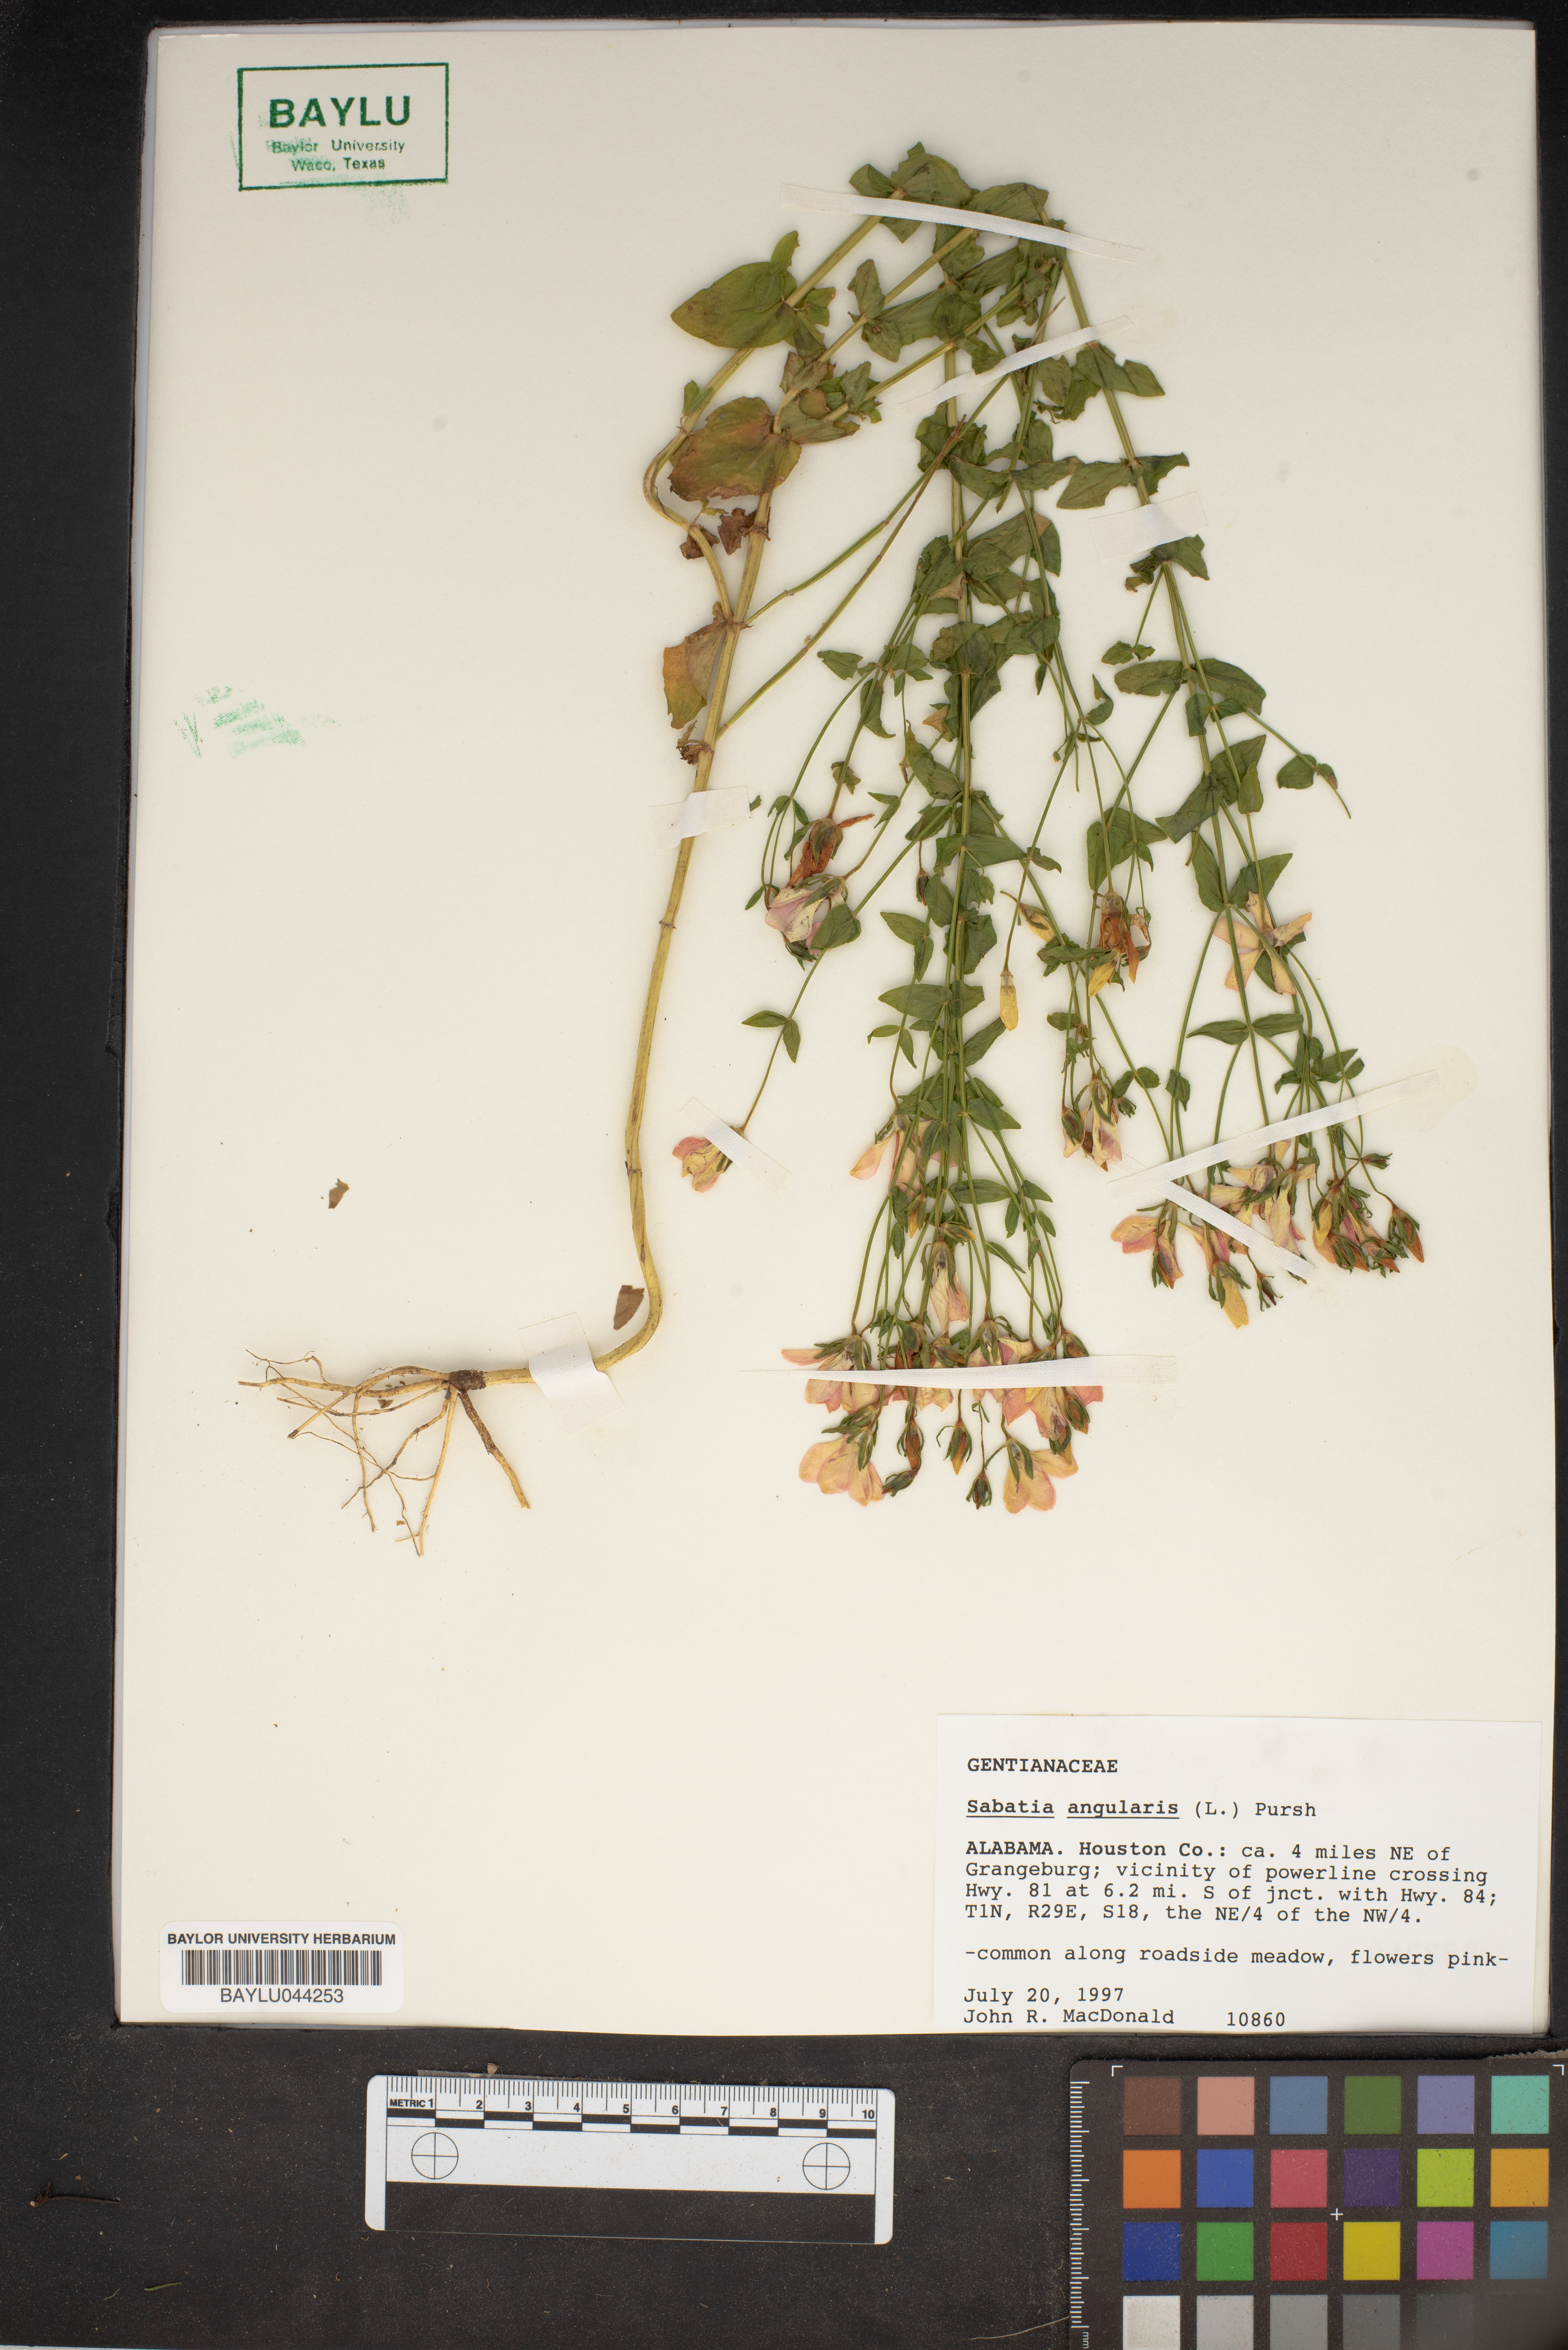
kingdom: Plantae
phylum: Tracheophyta
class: Magnoliopsida
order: Gentianales
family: Gentianaceae
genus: Sabatia
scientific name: Sabatia angularis
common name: Rose-pink
